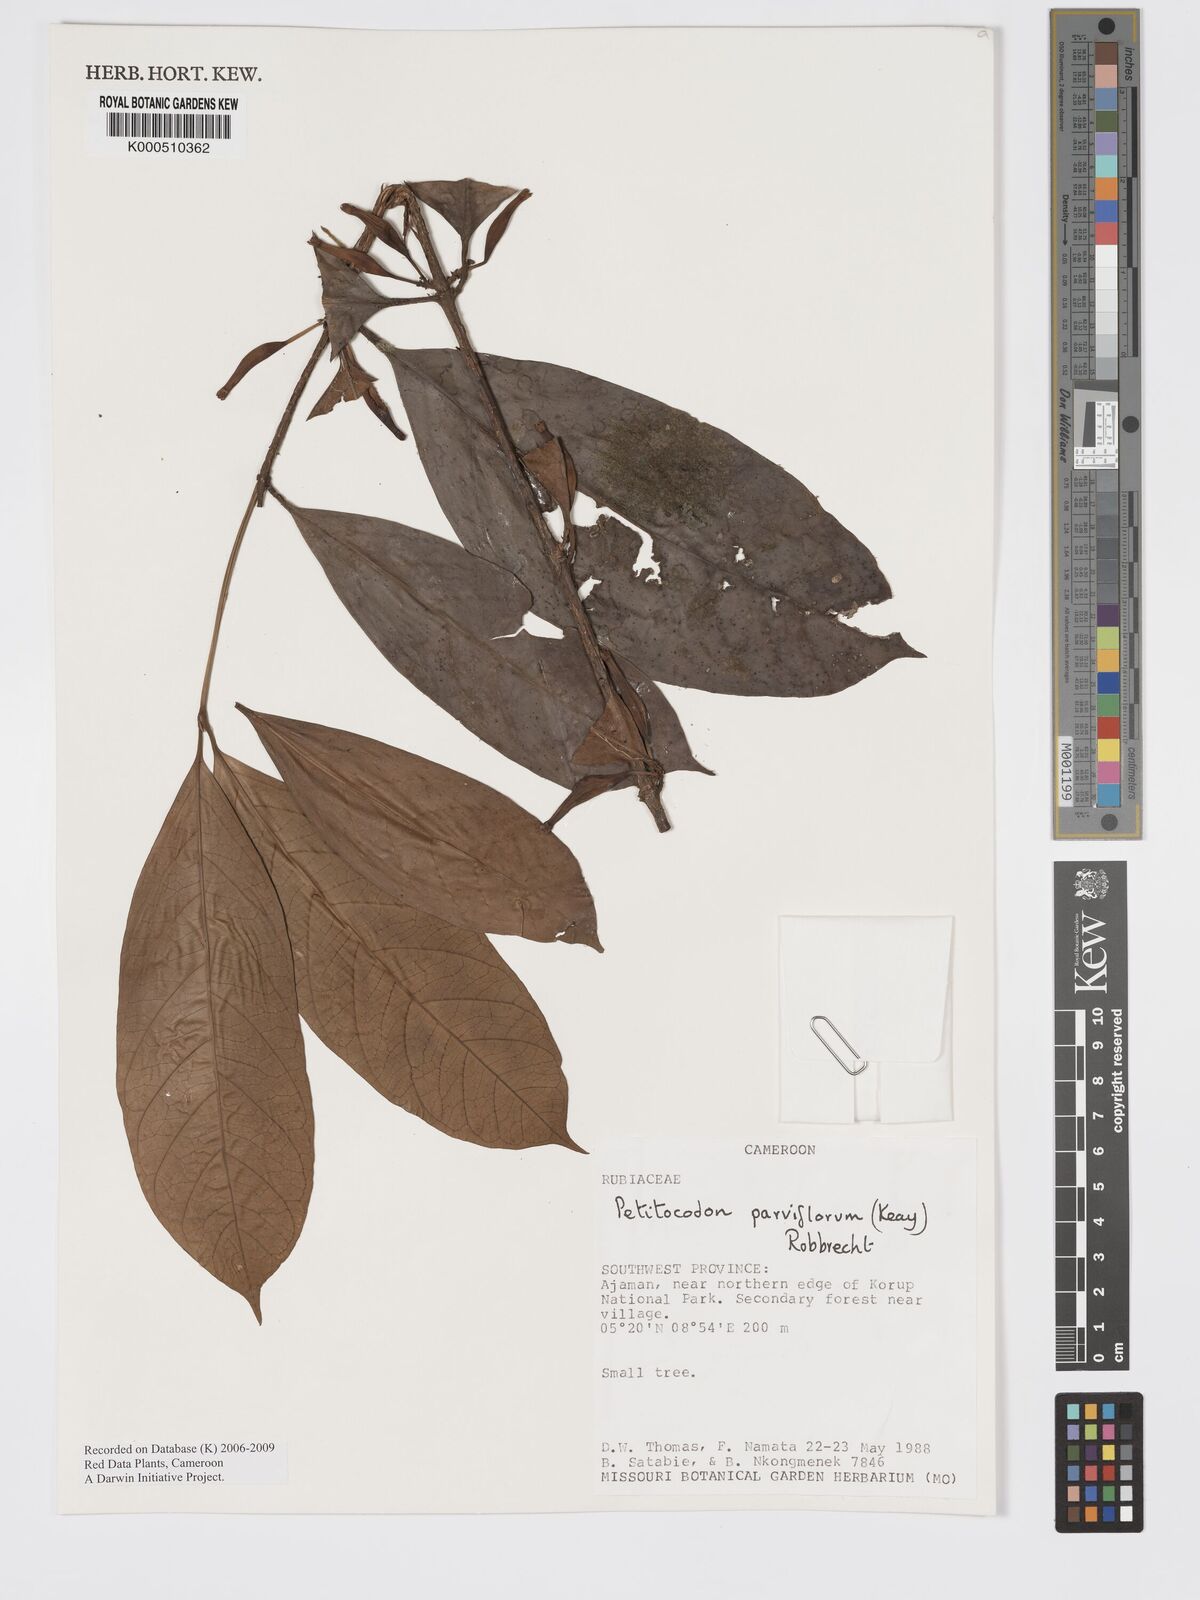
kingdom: Plantae
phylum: Tracheophyta
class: Magnoliopsida
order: Gentianales
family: Rubiaceae
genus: Petitiocodon
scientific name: Petitiocodon parviflorum
